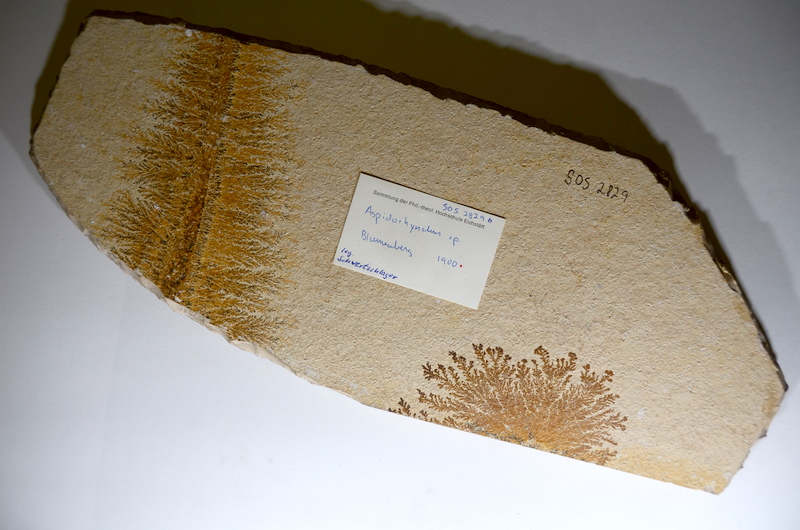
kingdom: Animalia
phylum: Chordata
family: Aspidorhynchidae
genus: Aspidorhynchus
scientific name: Aspidorhynchus acutirostris
